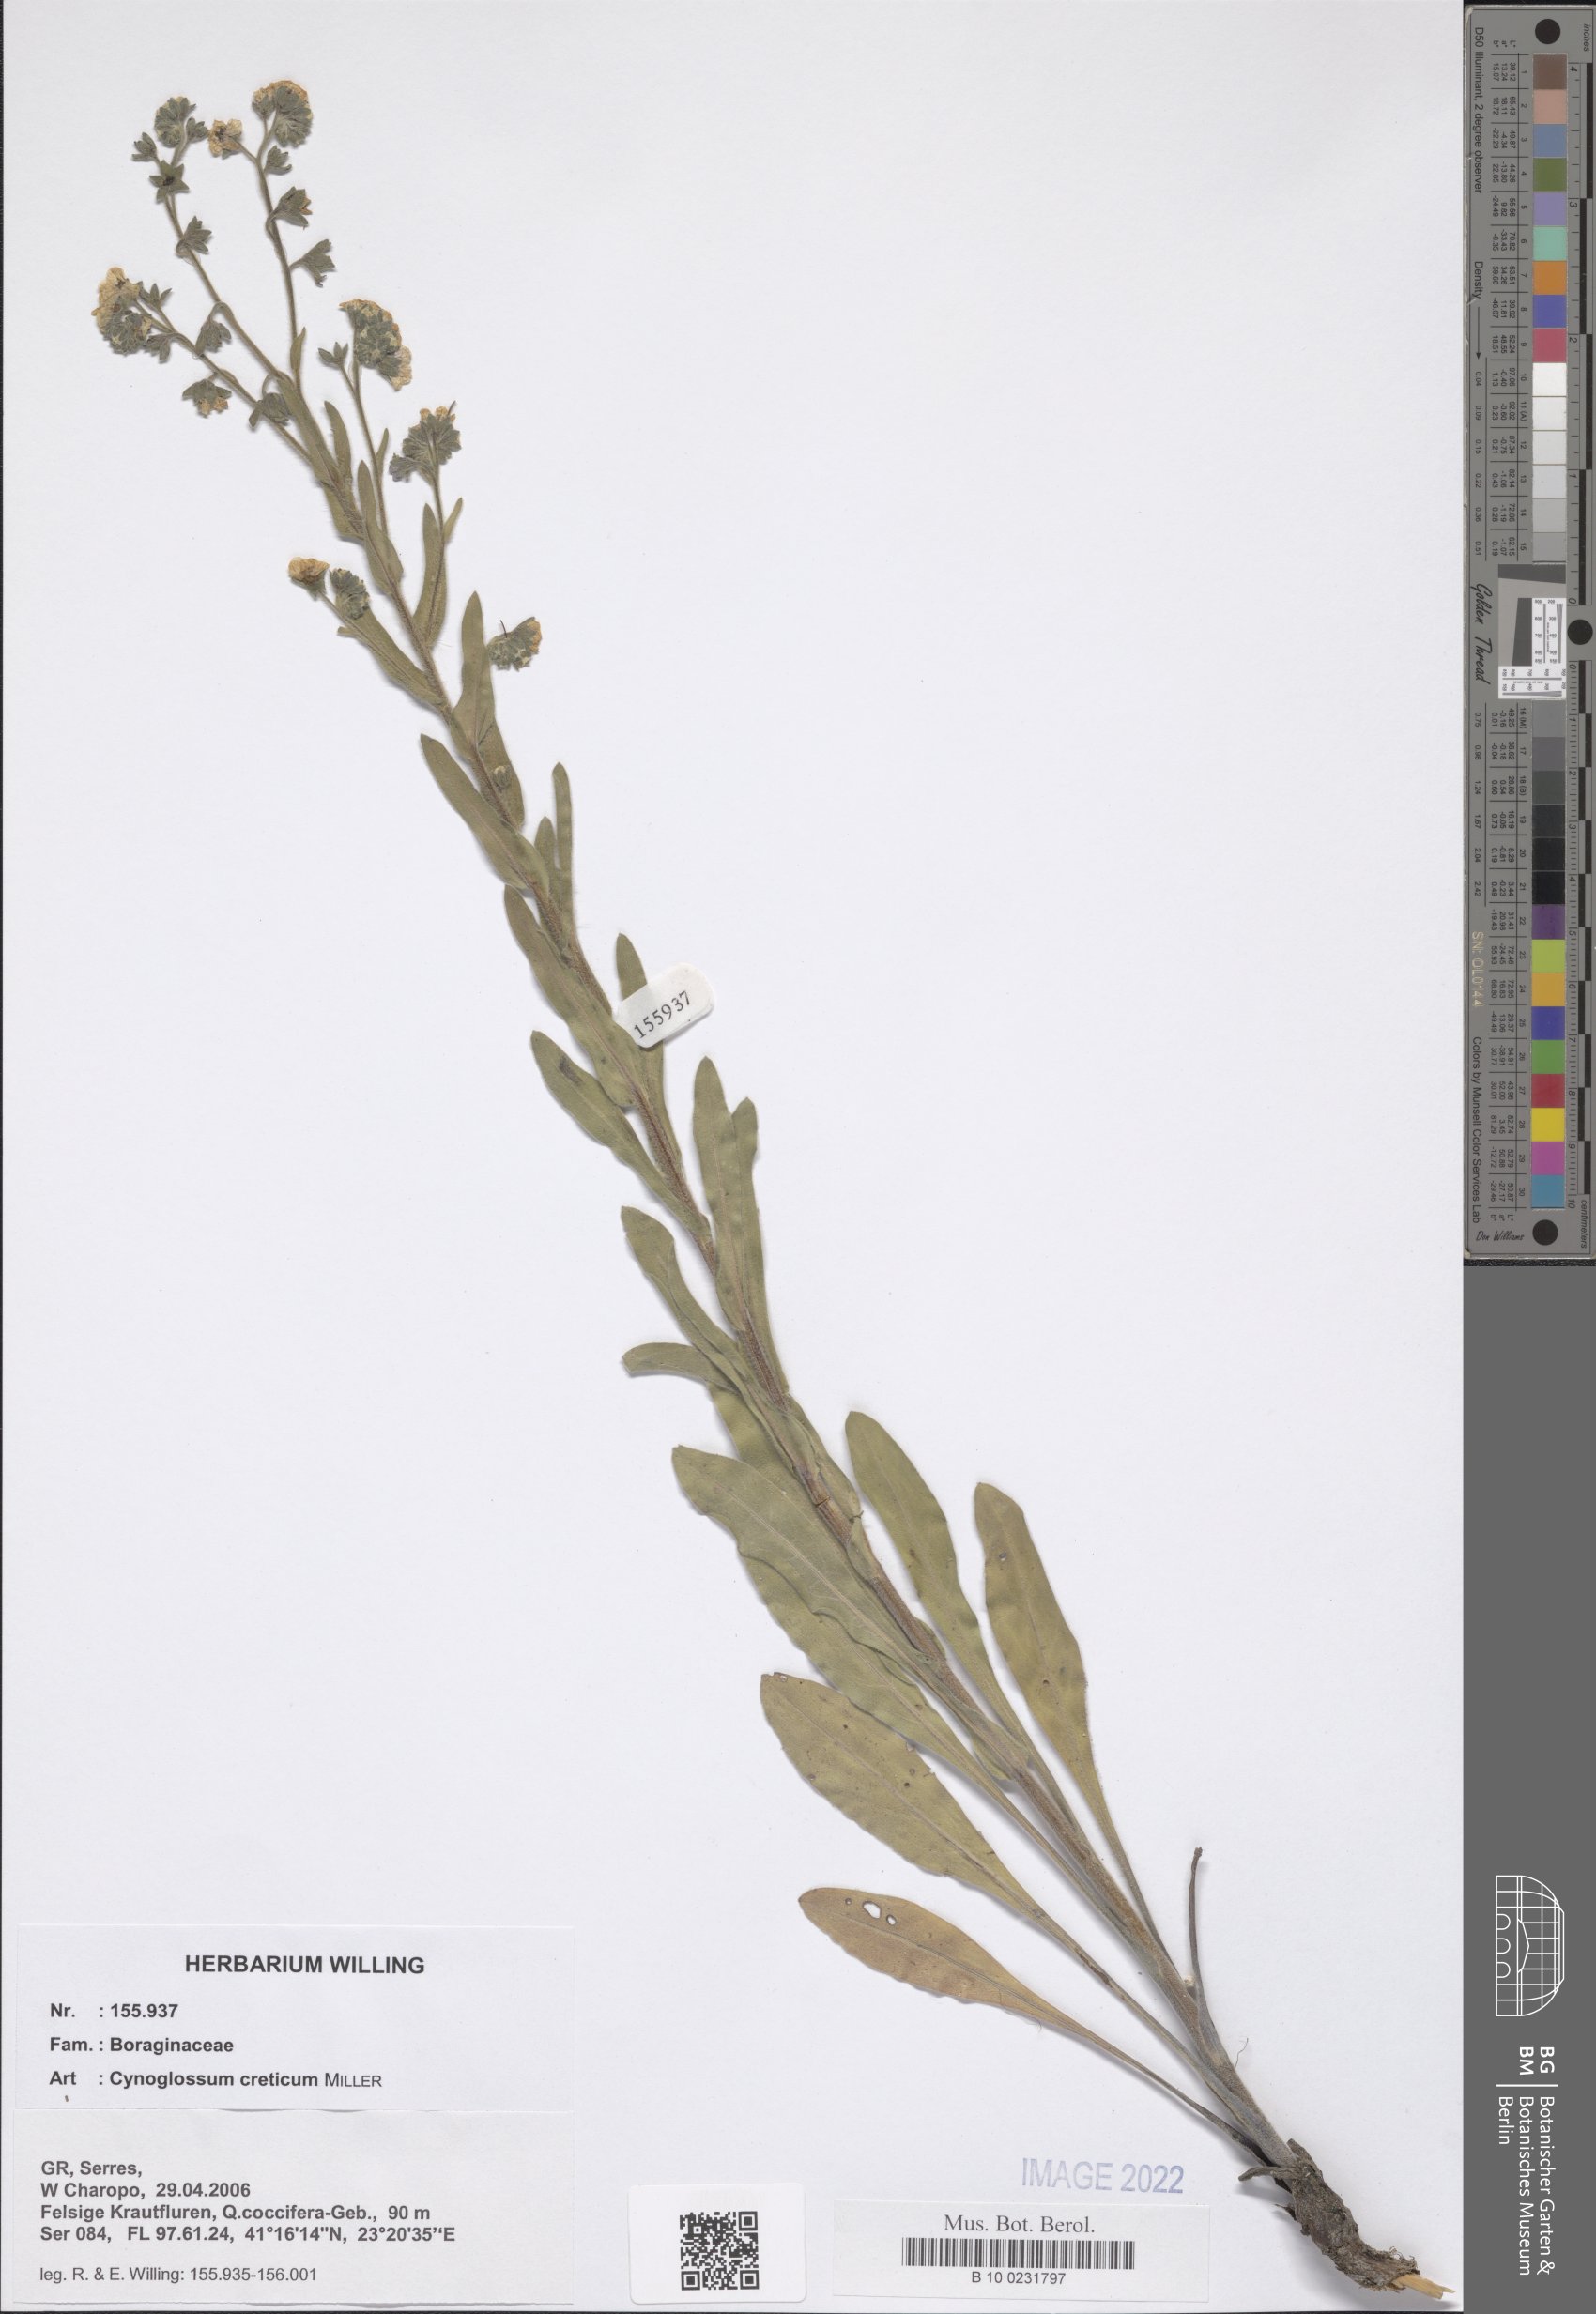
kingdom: Plantae
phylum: Tracheophyta
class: Magnoliopsida
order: Boraginales
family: Boraginaceae
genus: Cynoglossum
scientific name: Cynoglossum creticum
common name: Blue hound's tongue
